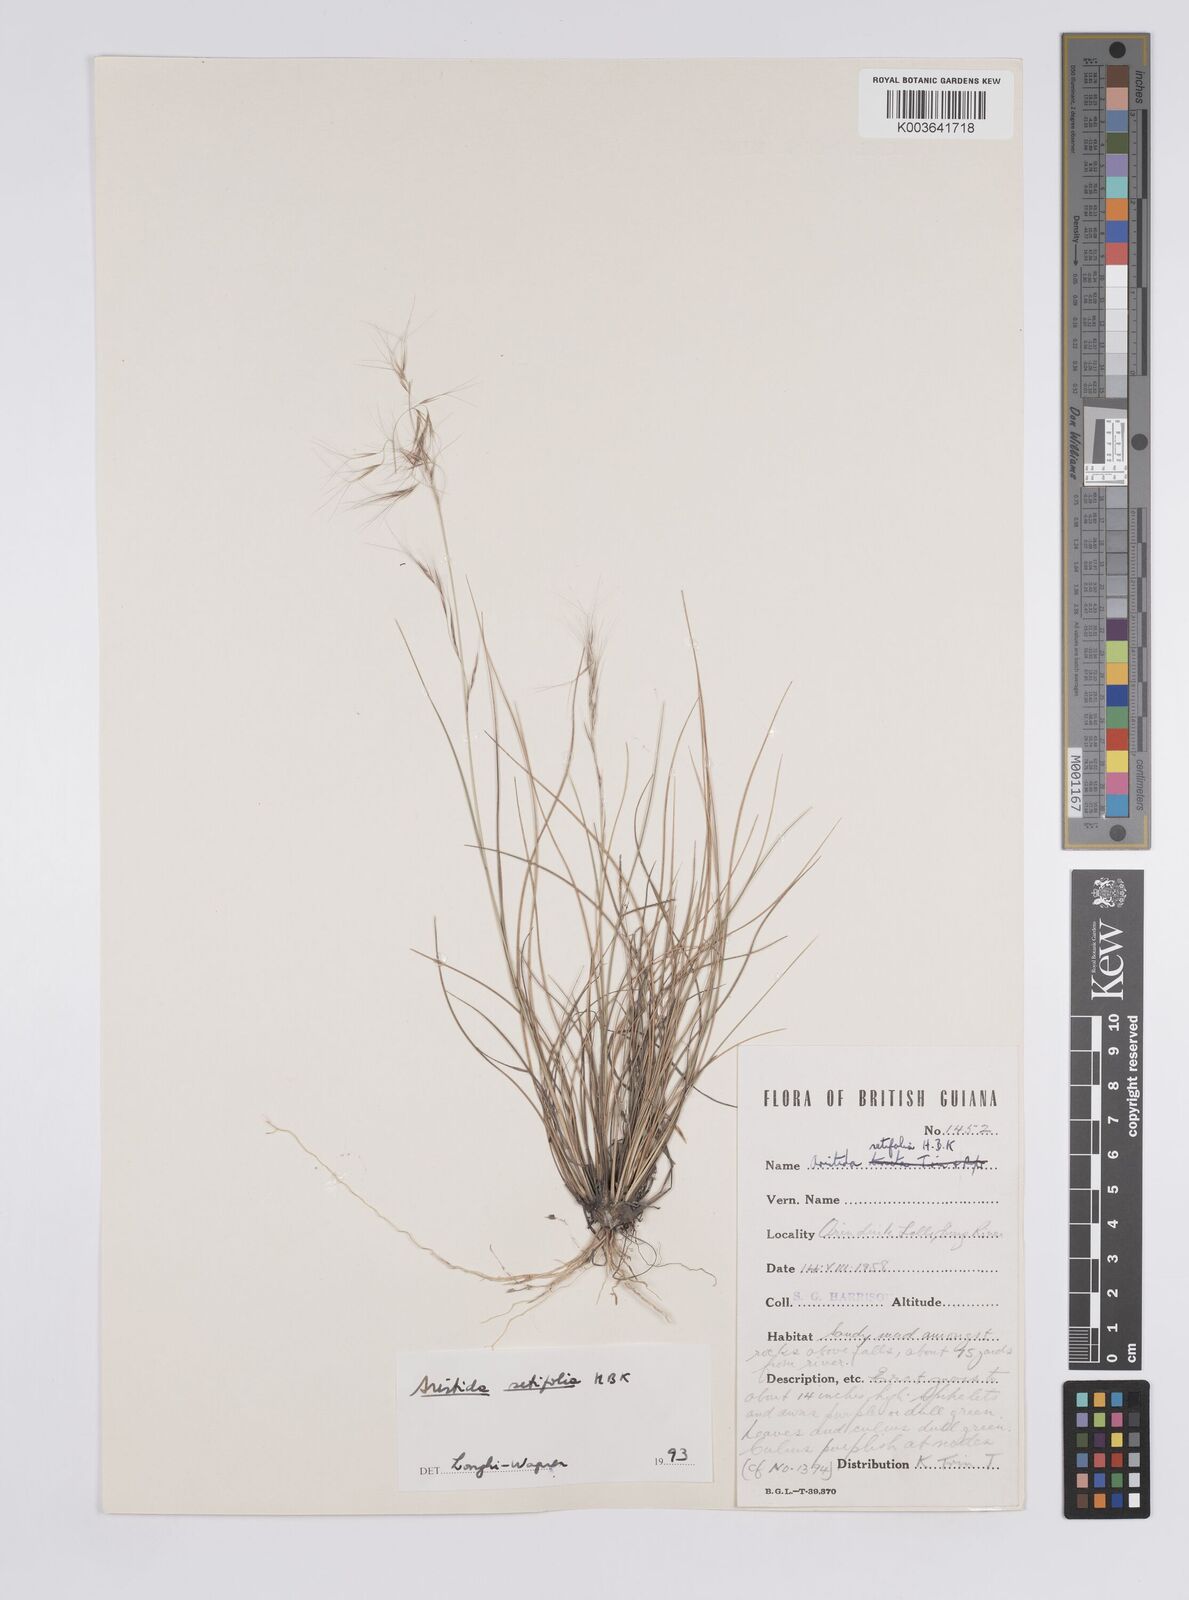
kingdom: Plantae
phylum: Tracheophyta
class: Liliopsida
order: Poales
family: Poaceae
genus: Aristida
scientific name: Aristida setifolia
